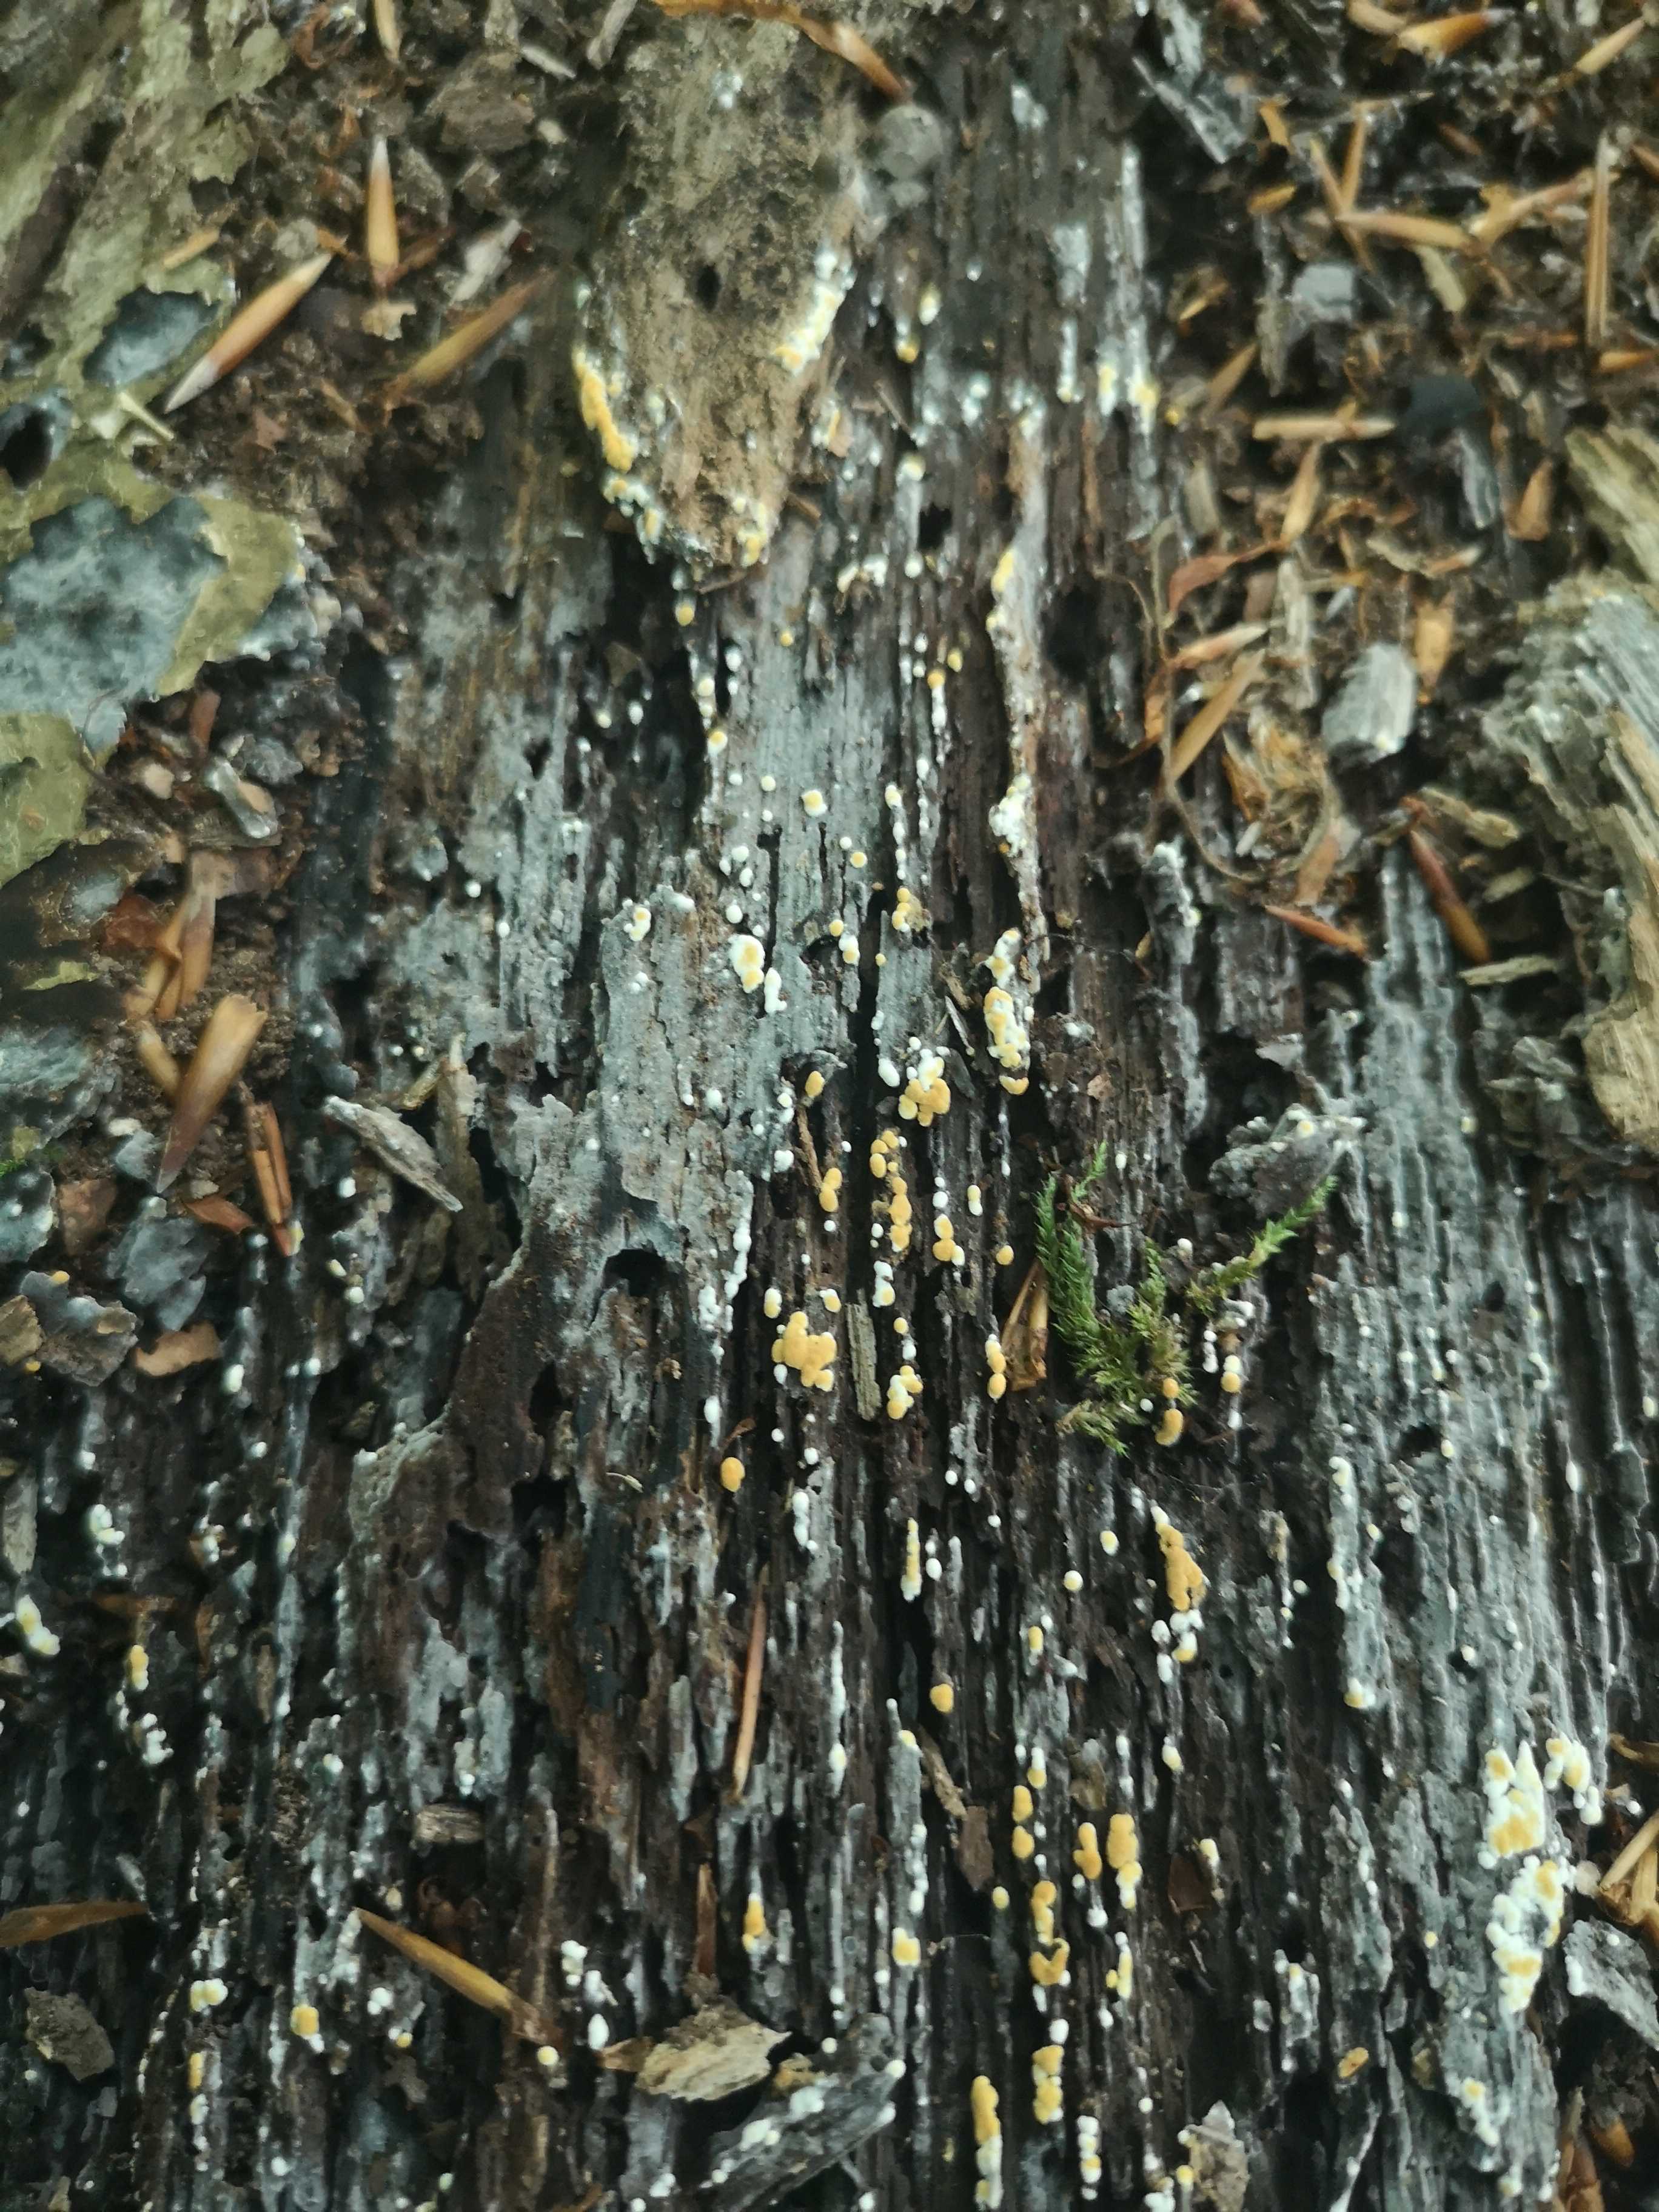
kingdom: Fungi
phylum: Basidiomycota
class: Agaricomycetes
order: Cantharellales
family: Botryobasidiaceae
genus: Botryobasidium
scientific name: Botryobasidium aureum
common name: gylden spindhinde
